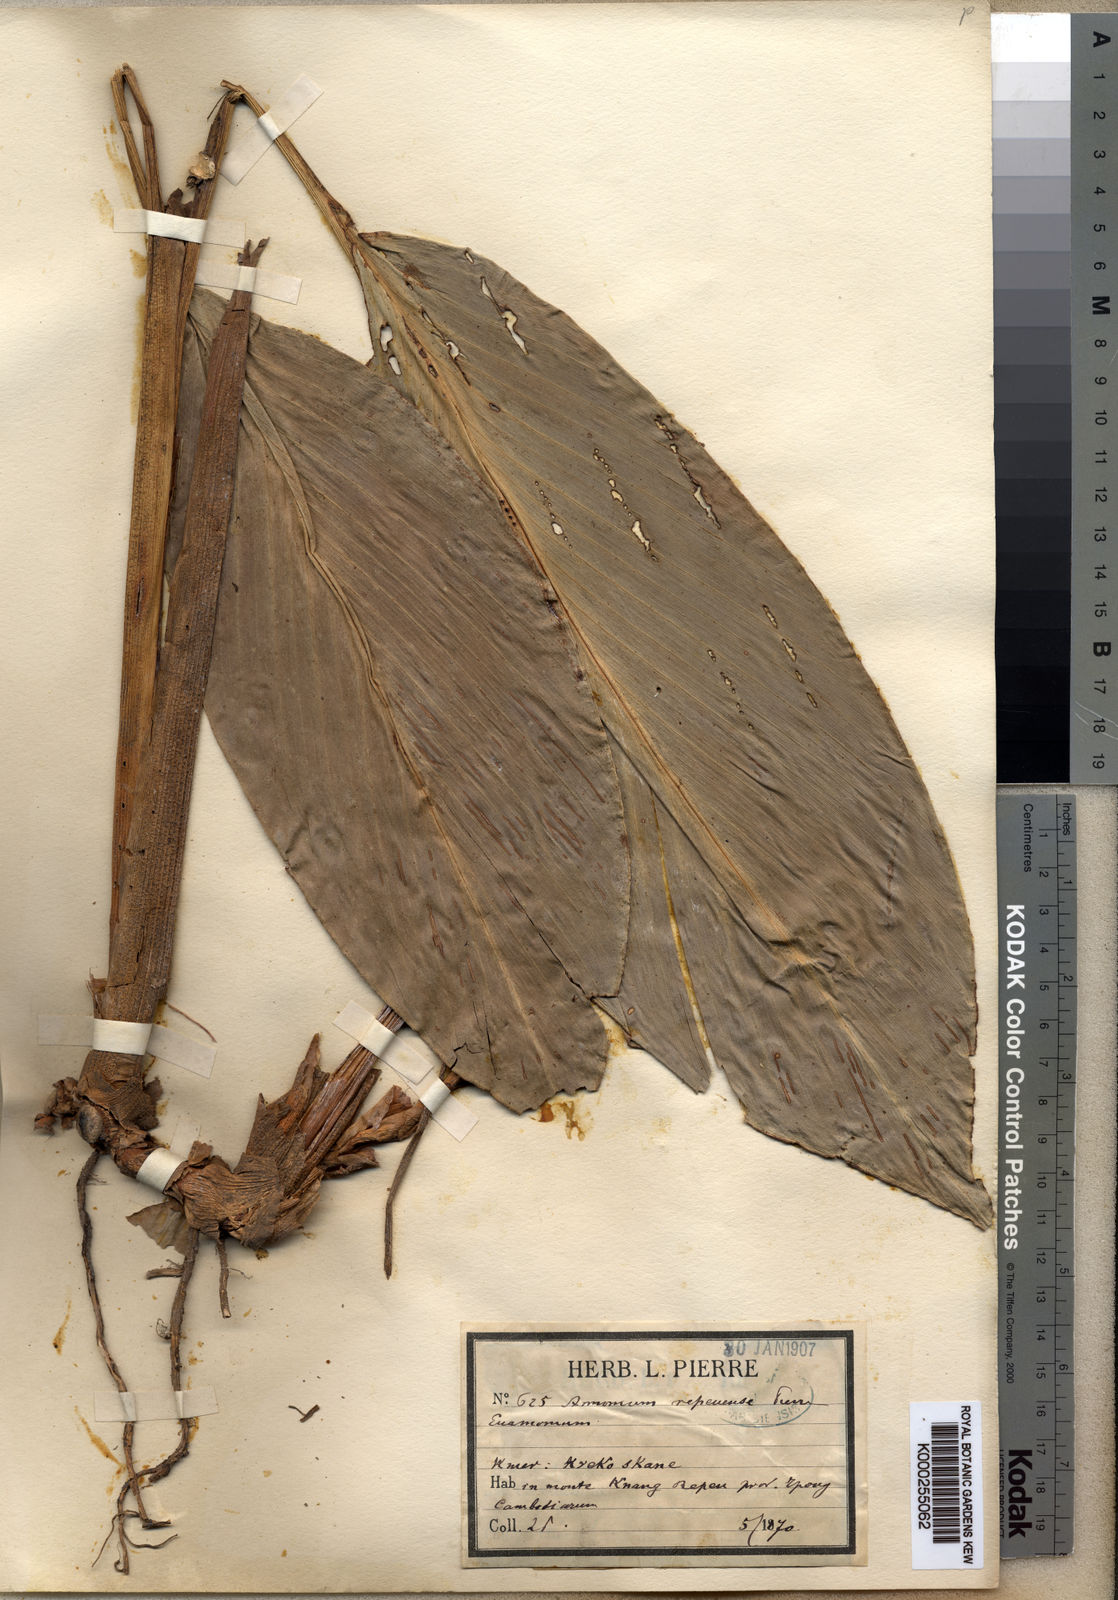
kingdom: Plantae
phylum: Tracheophyta
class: Liliopsida
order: Zingiberales
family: Zingiberaceae
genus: Amomum
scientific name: Amomum repoeense
